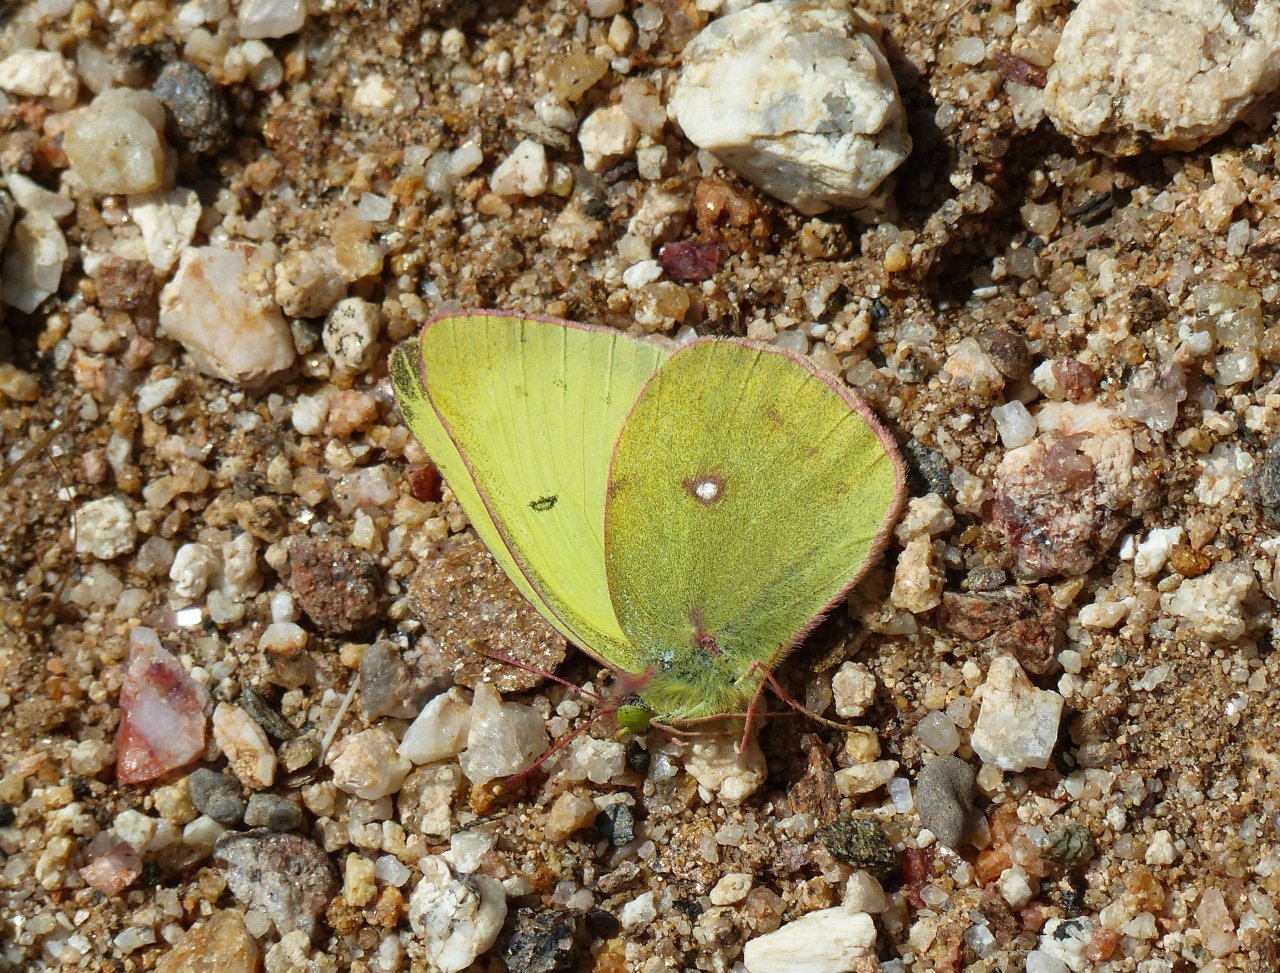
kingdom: Animalia
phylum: Arthropoda
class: Insecta
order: Lepidoptera
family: Pieridae
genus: Colias
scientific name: Colias harfordii
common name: Harford's Sulphur
